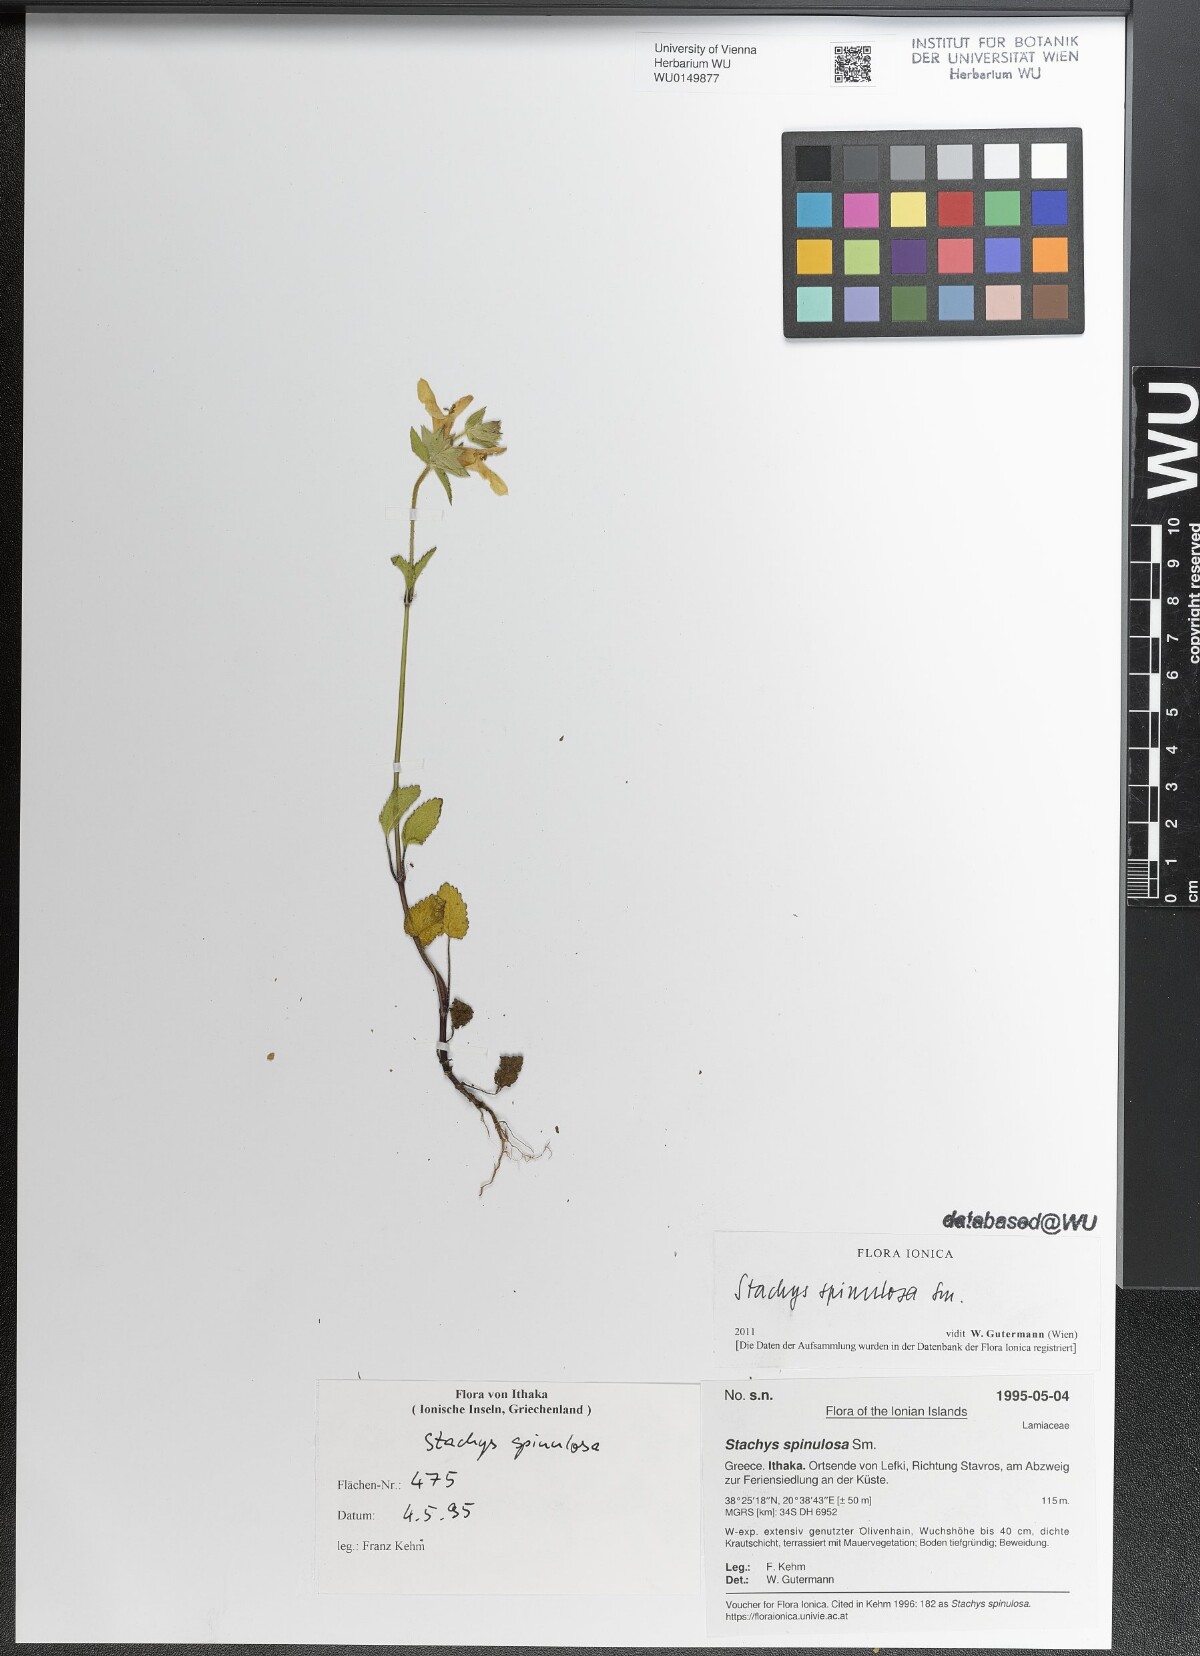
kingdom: Plantae
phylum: Tracheophyta
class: Magnoliopsida
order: Lamiales
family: Lamiaceae
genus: Stachys
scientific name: Stachys spinulosa
